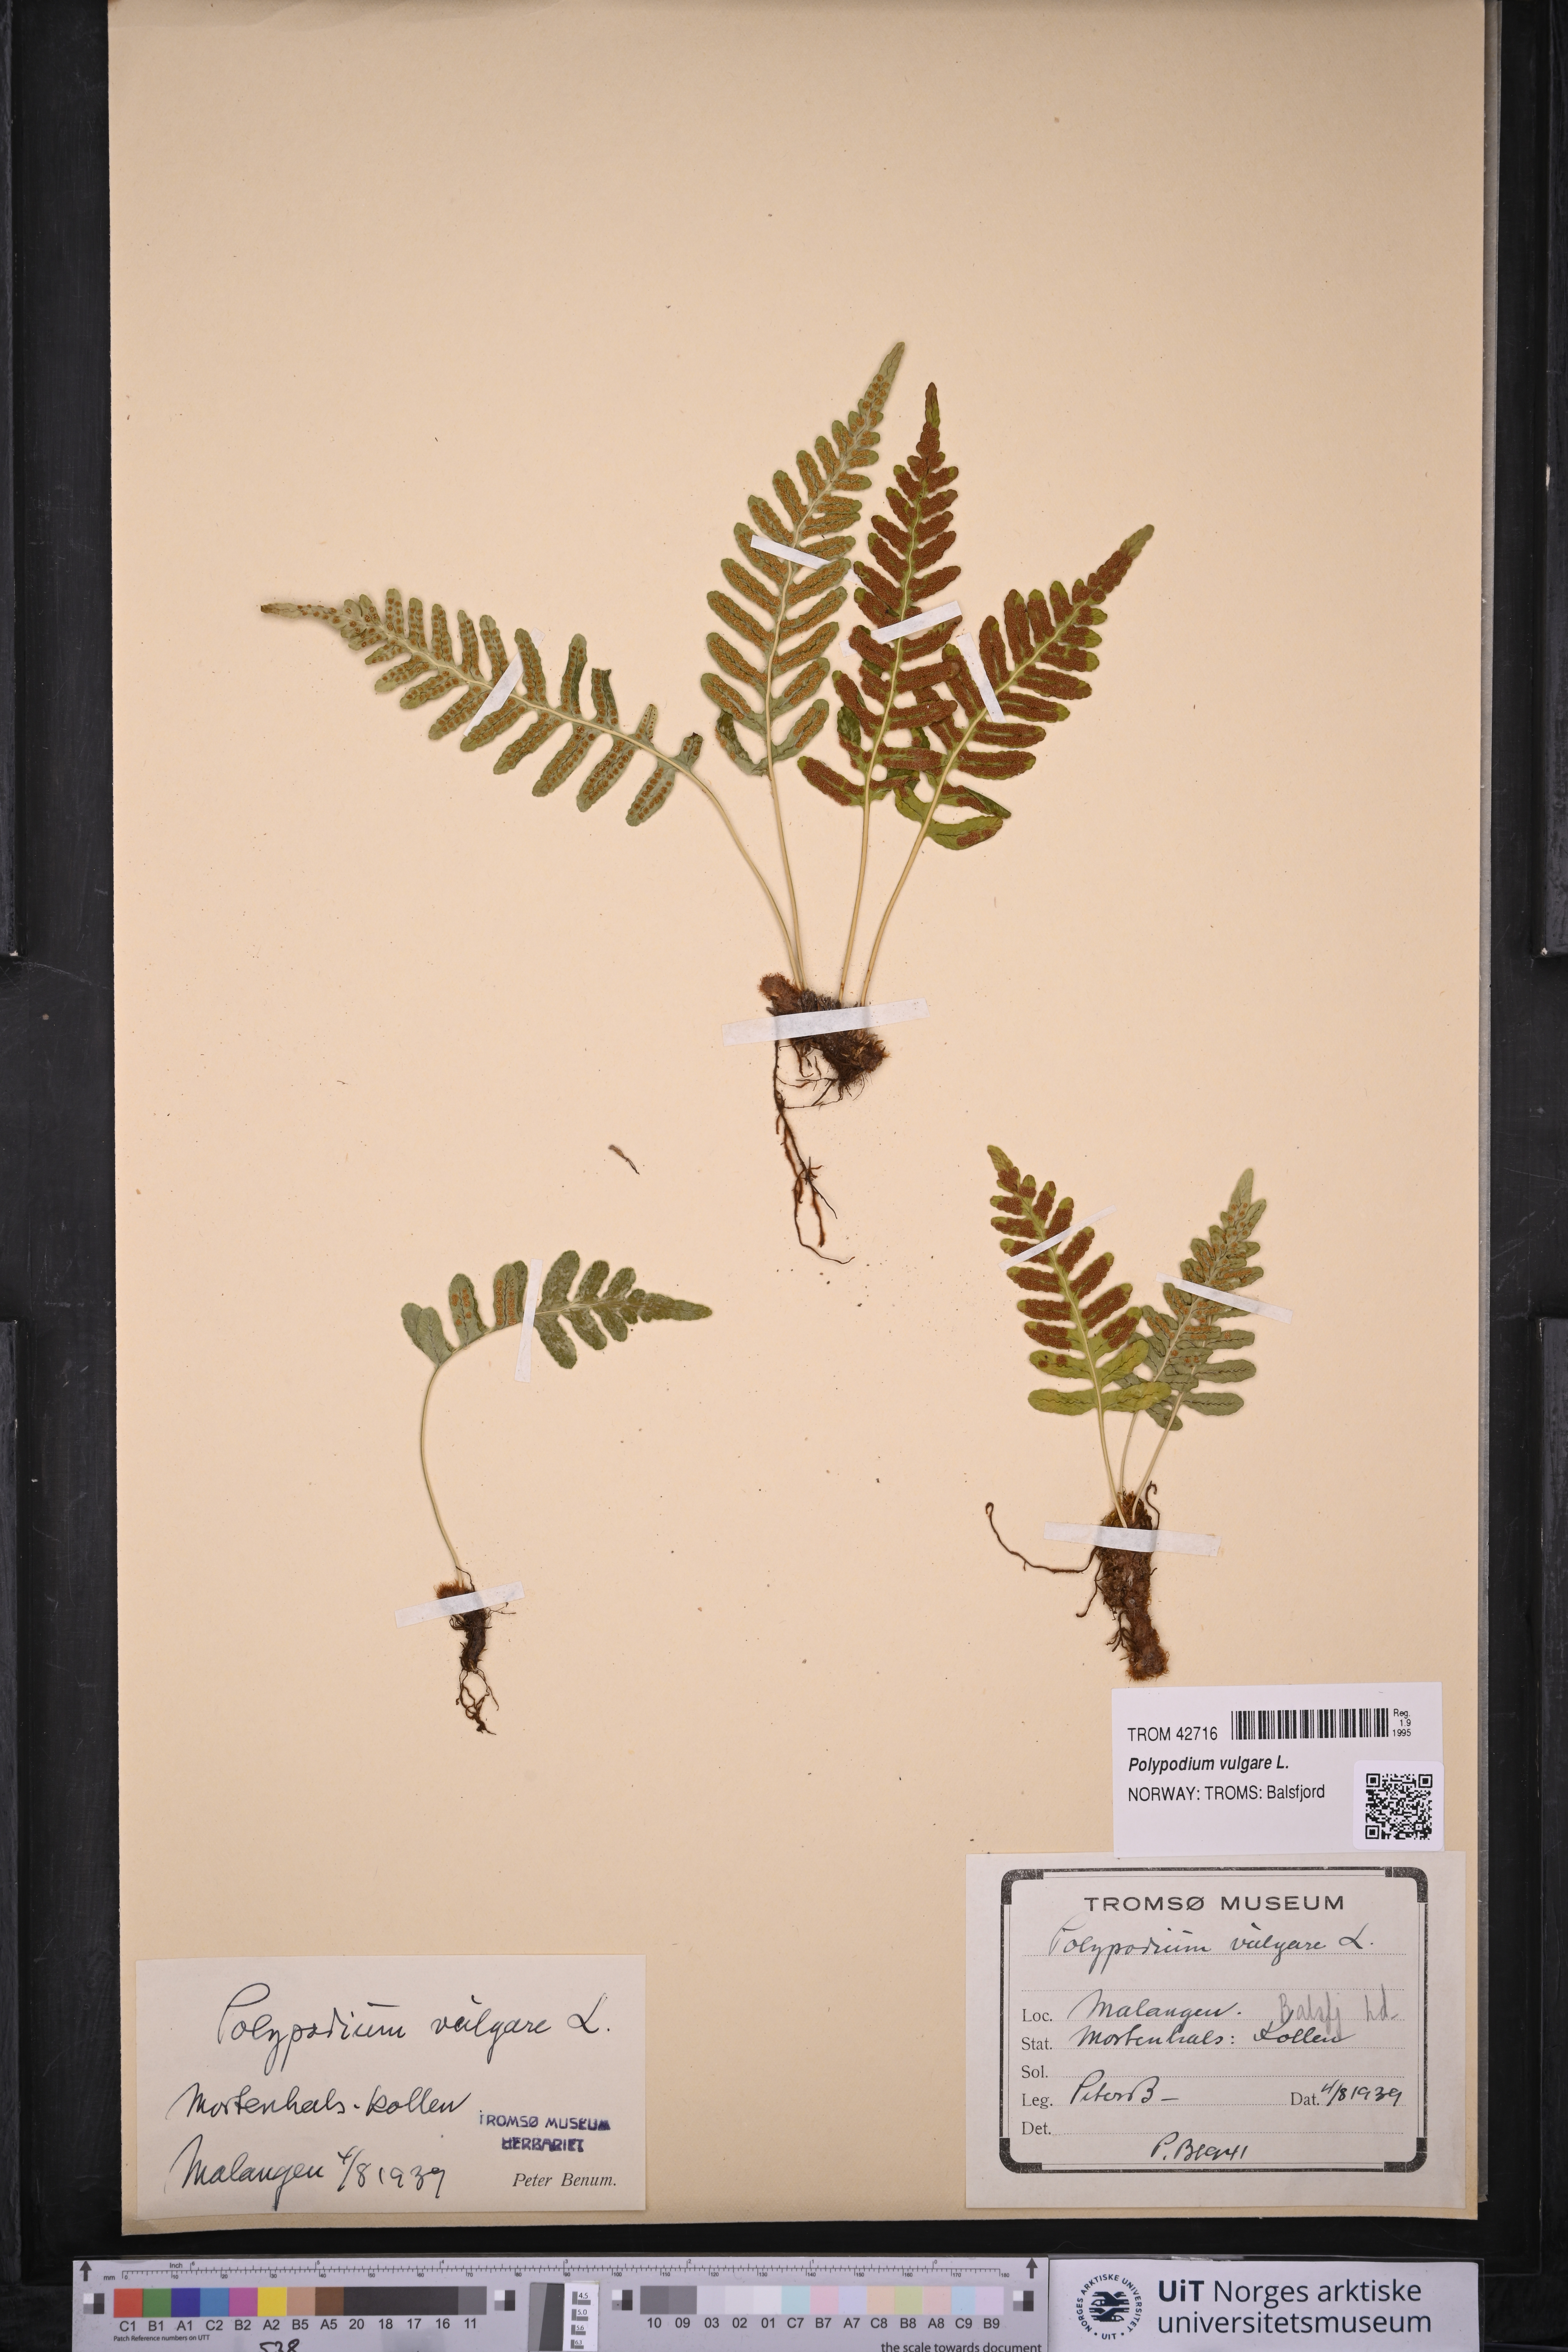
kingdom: Plantae
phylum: Tracheophyta
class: Polypodiopsida
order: Polypodiales
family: Polypodiaceae
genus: Polypodium
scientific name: Polypodium vulgare
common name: Common polypody
